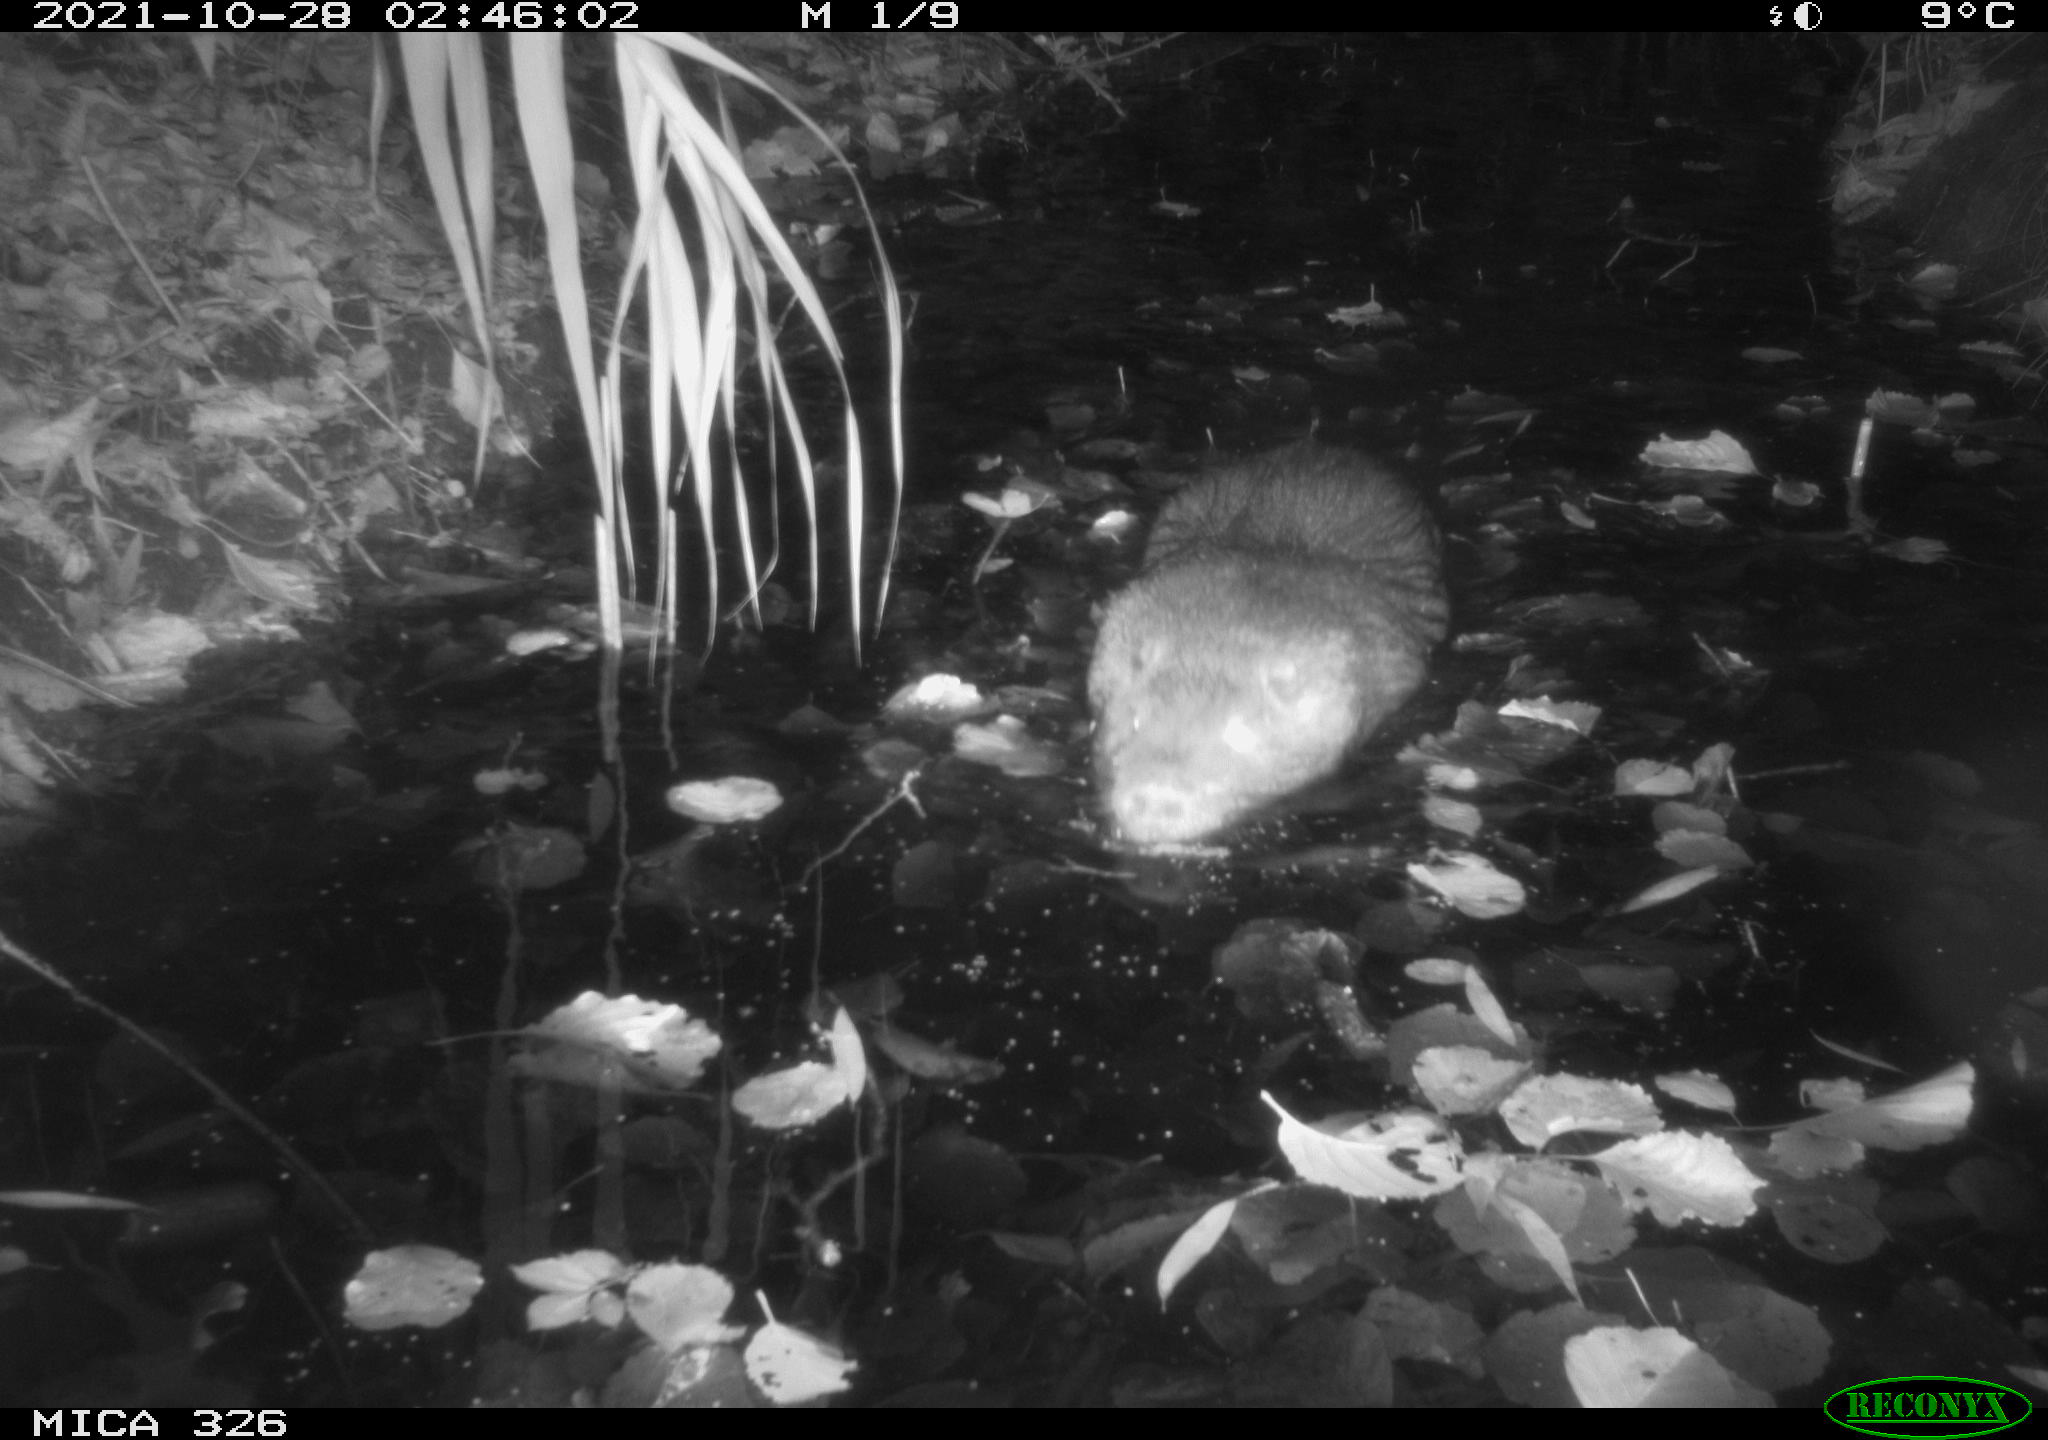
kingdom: Animalia
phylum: Chordata
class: Mammalia
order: Rodentia
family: Myocastoridae
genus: Myocastor
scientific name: Myocastor coypus
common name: Coypu
